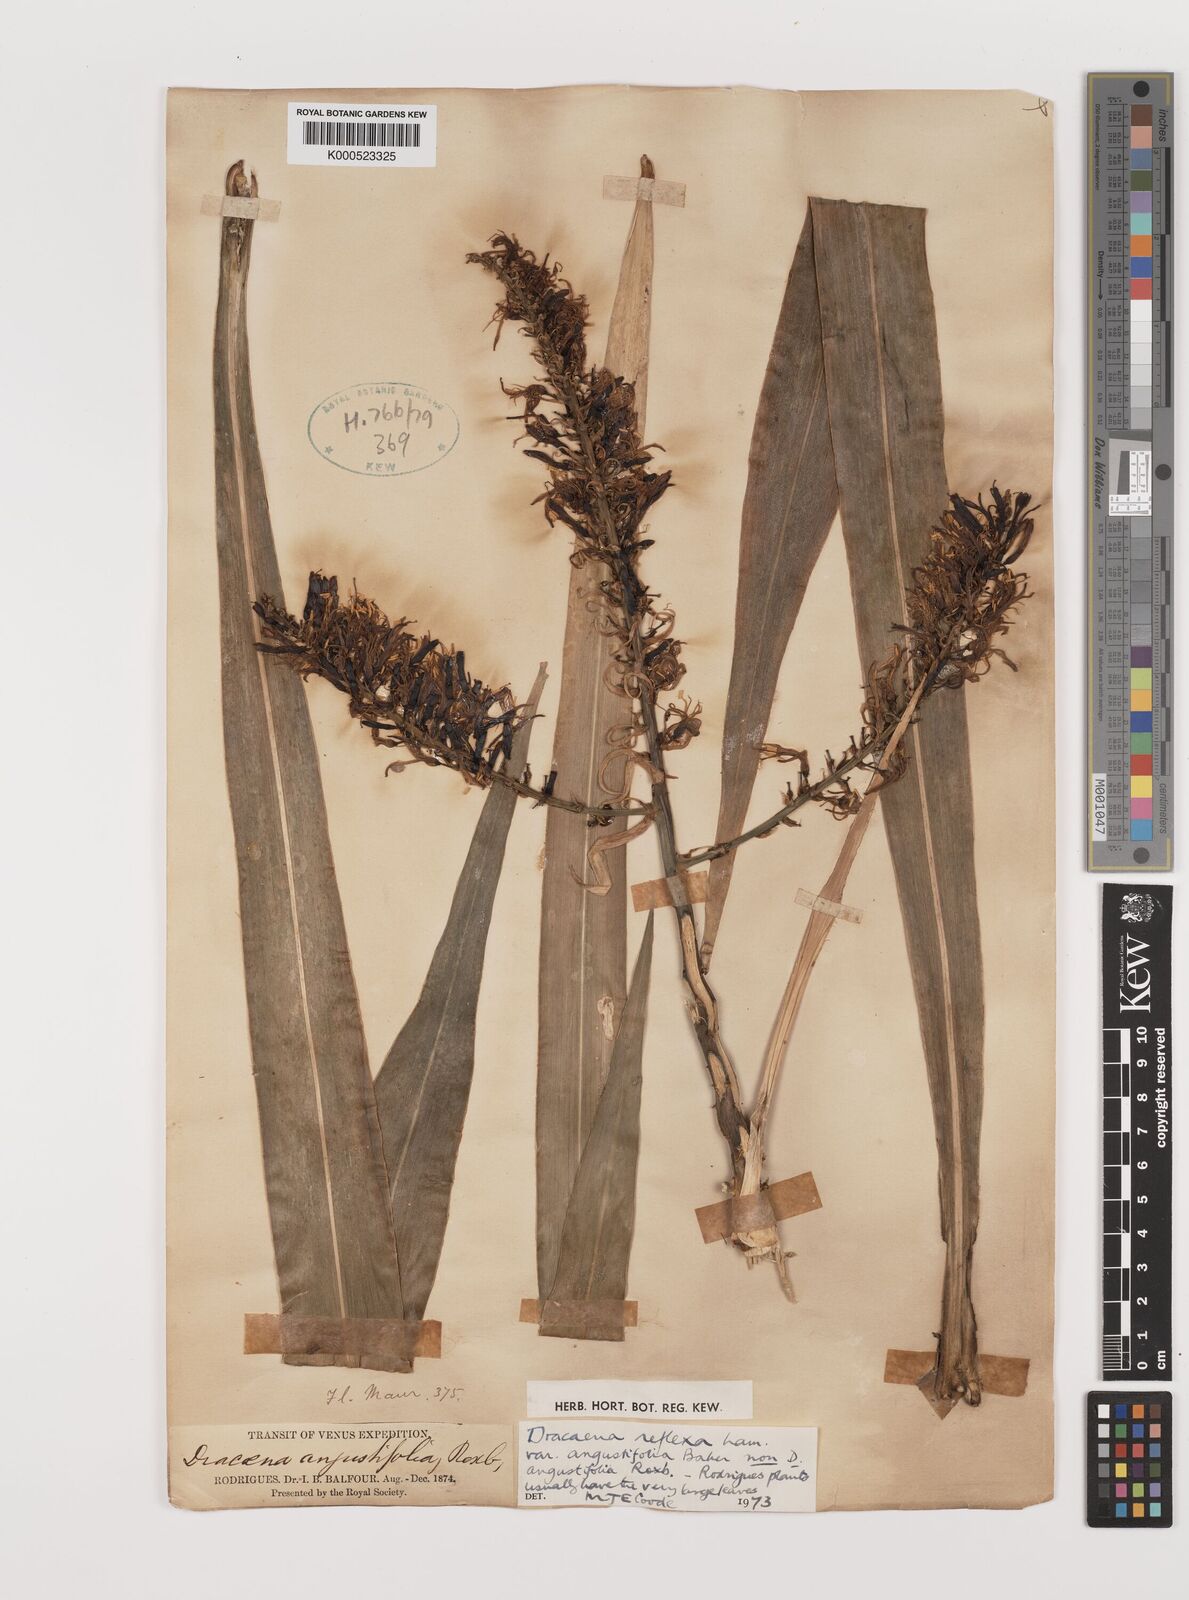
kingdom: Plantae
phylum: Tracheophyta
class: Liliopsida
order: Asparagales
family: Asparagaceae
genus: Dracaena
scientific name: Dracaena reflexa
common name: Song-of-india
